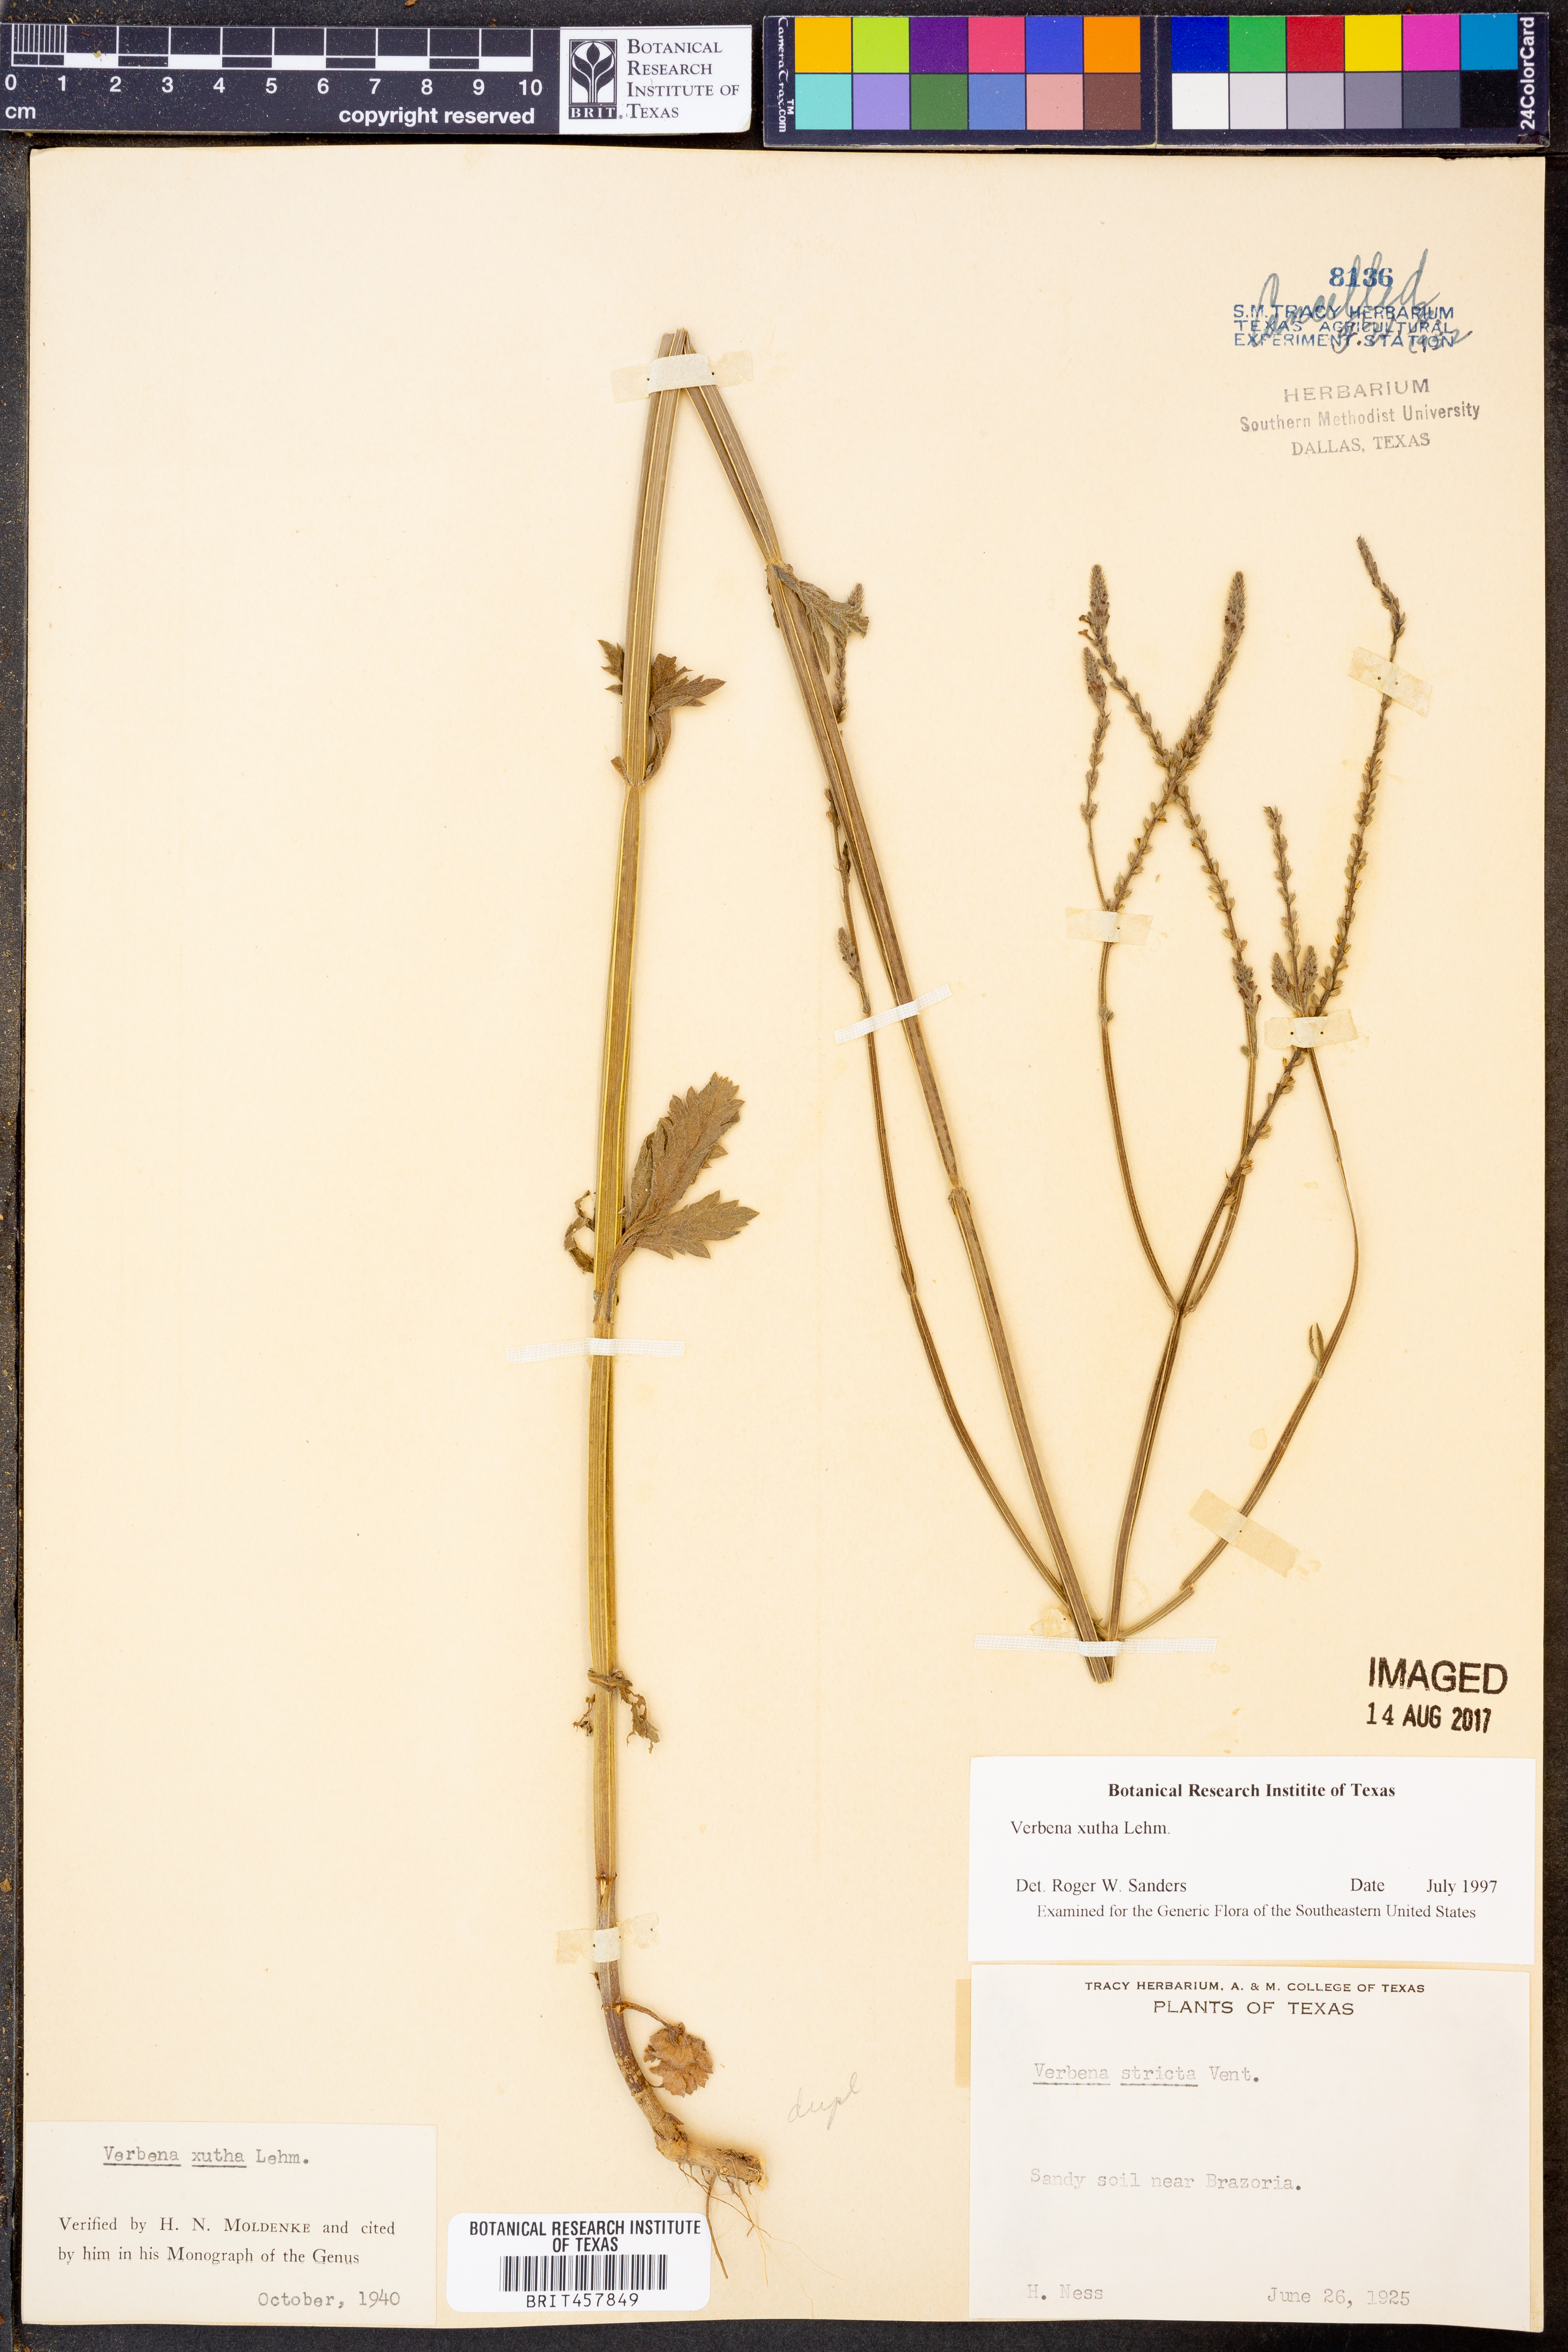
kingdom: Plantae
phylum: Tracheophyta
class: Magnoliopsida
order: Lamiales
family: Verbenaceae
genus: Verbena
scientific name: Verbena xutha
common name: Gulf vervain
